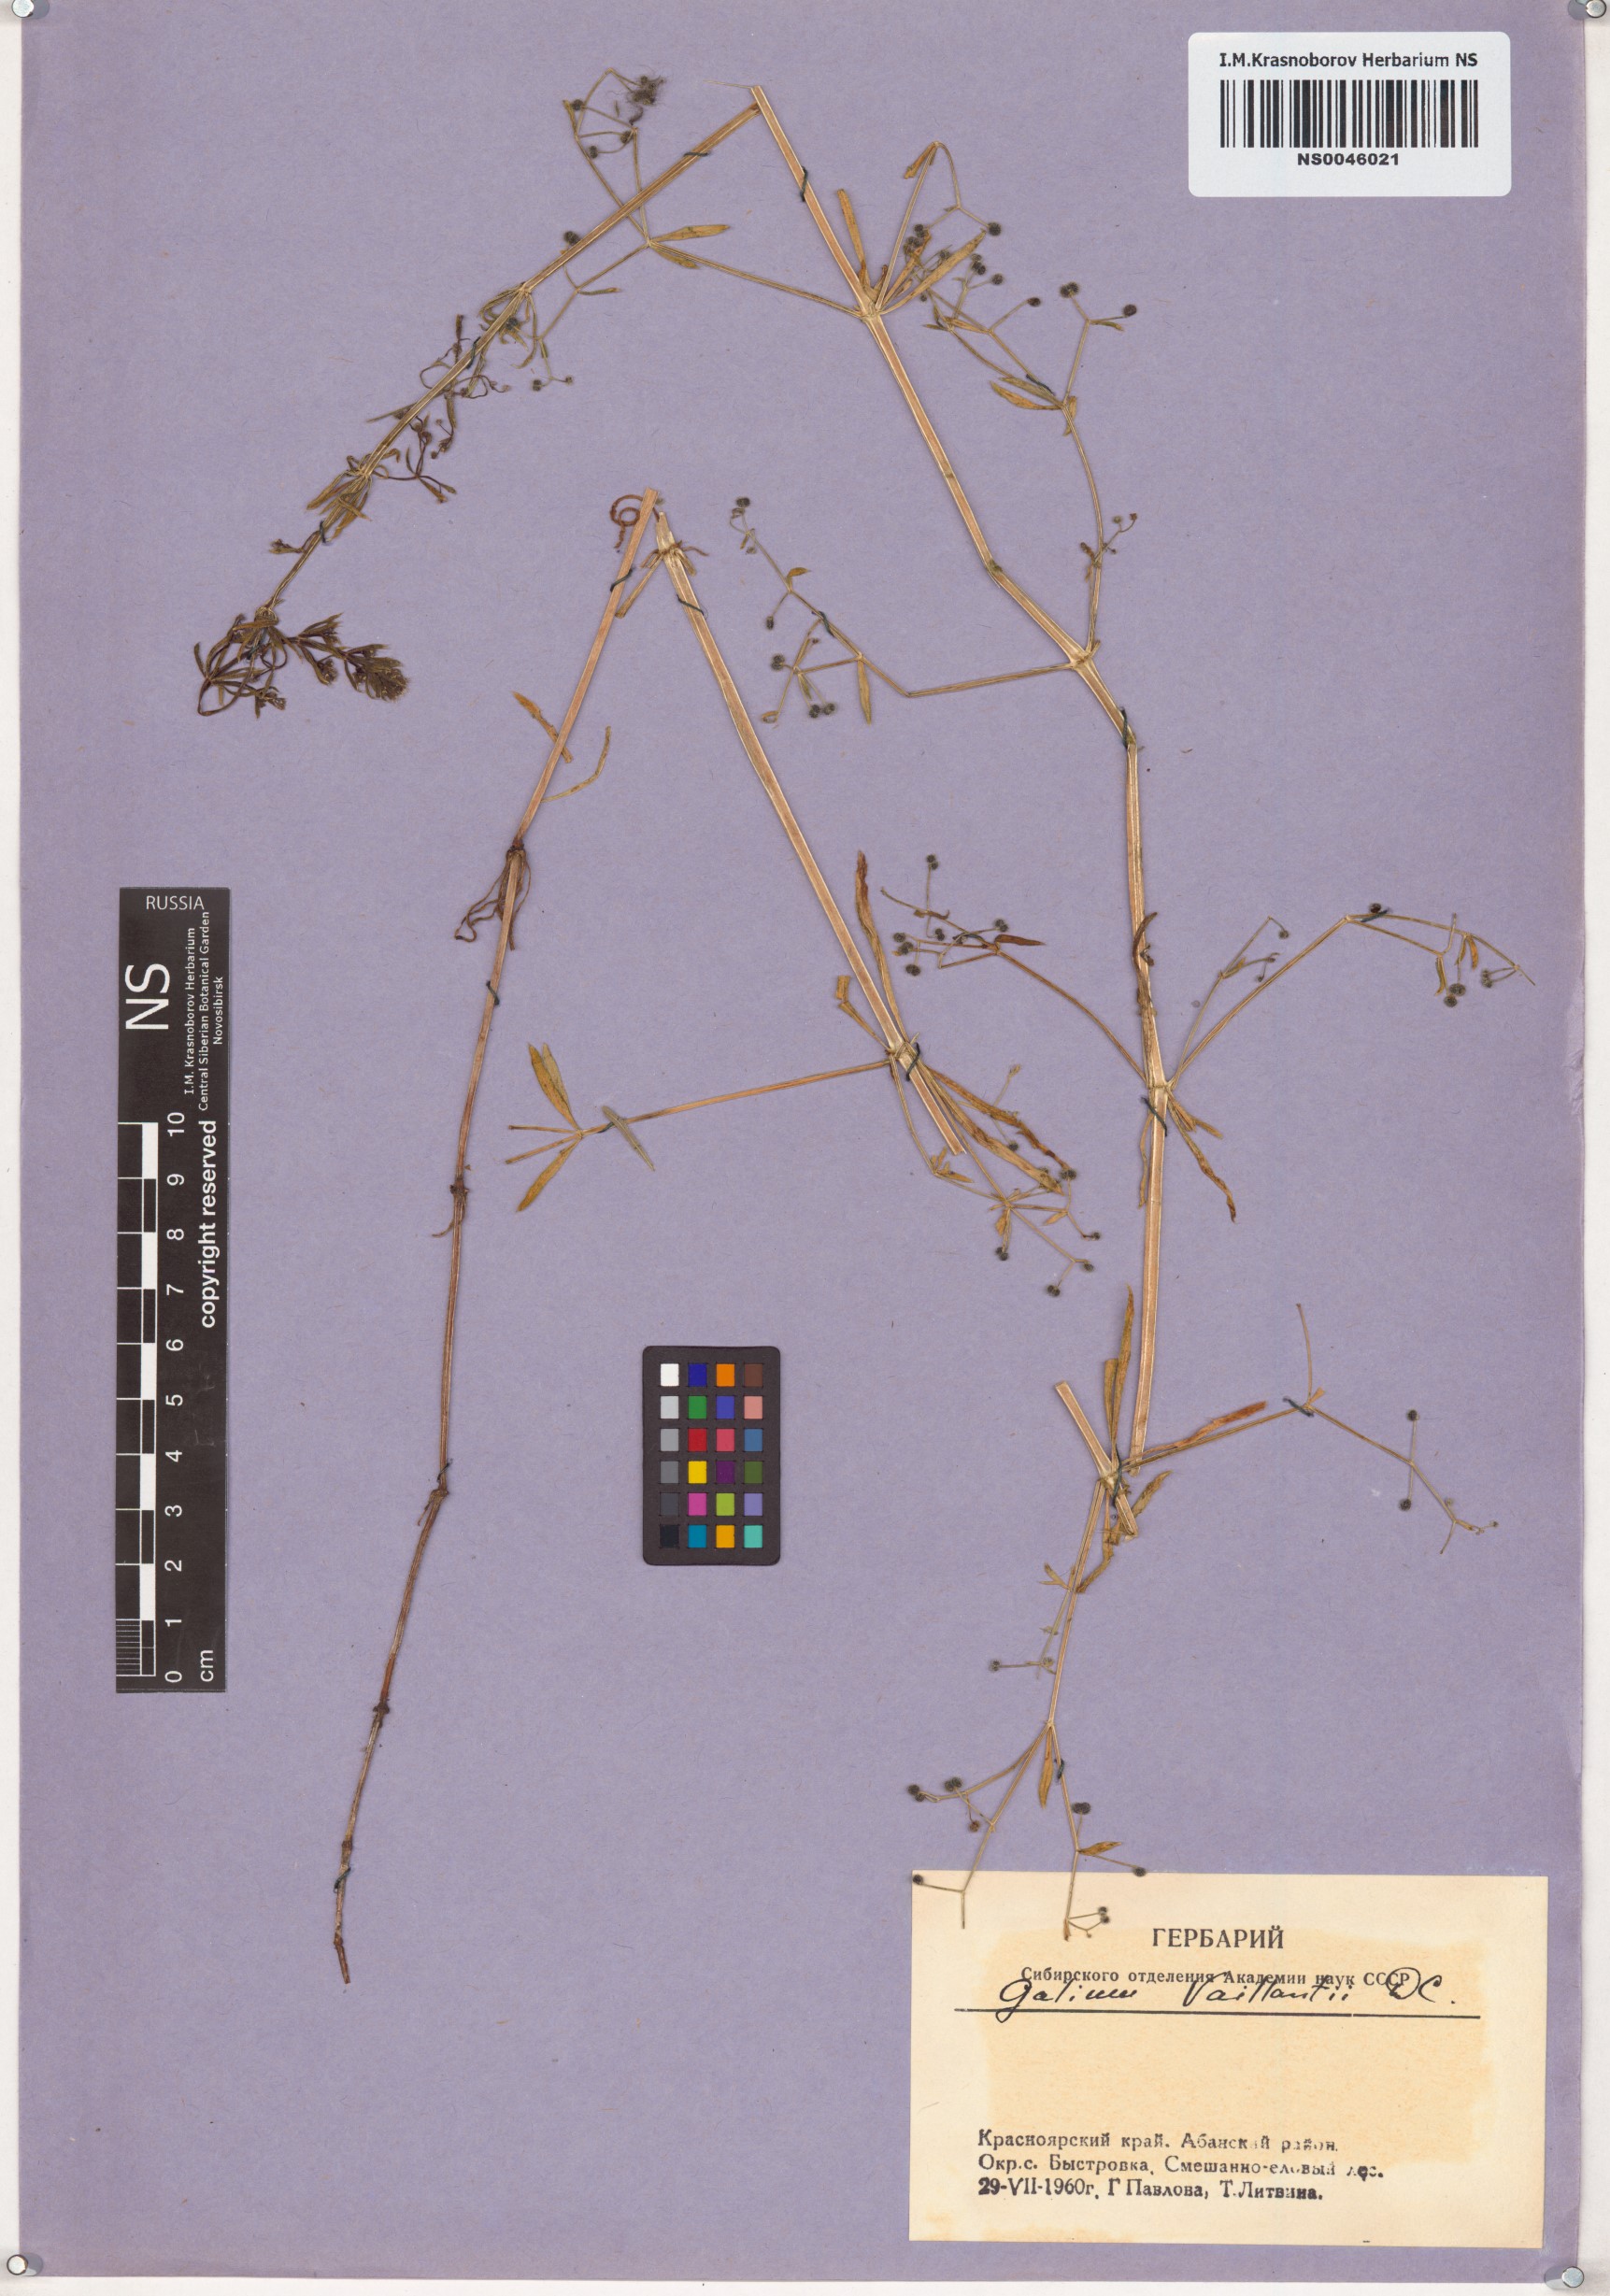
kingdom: Plantae
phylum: Tracheophyta
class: Magnoliopsida
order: Gentianales
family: Rubiaceae
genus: Galium
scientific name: Galium spurium
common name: False cleavers
